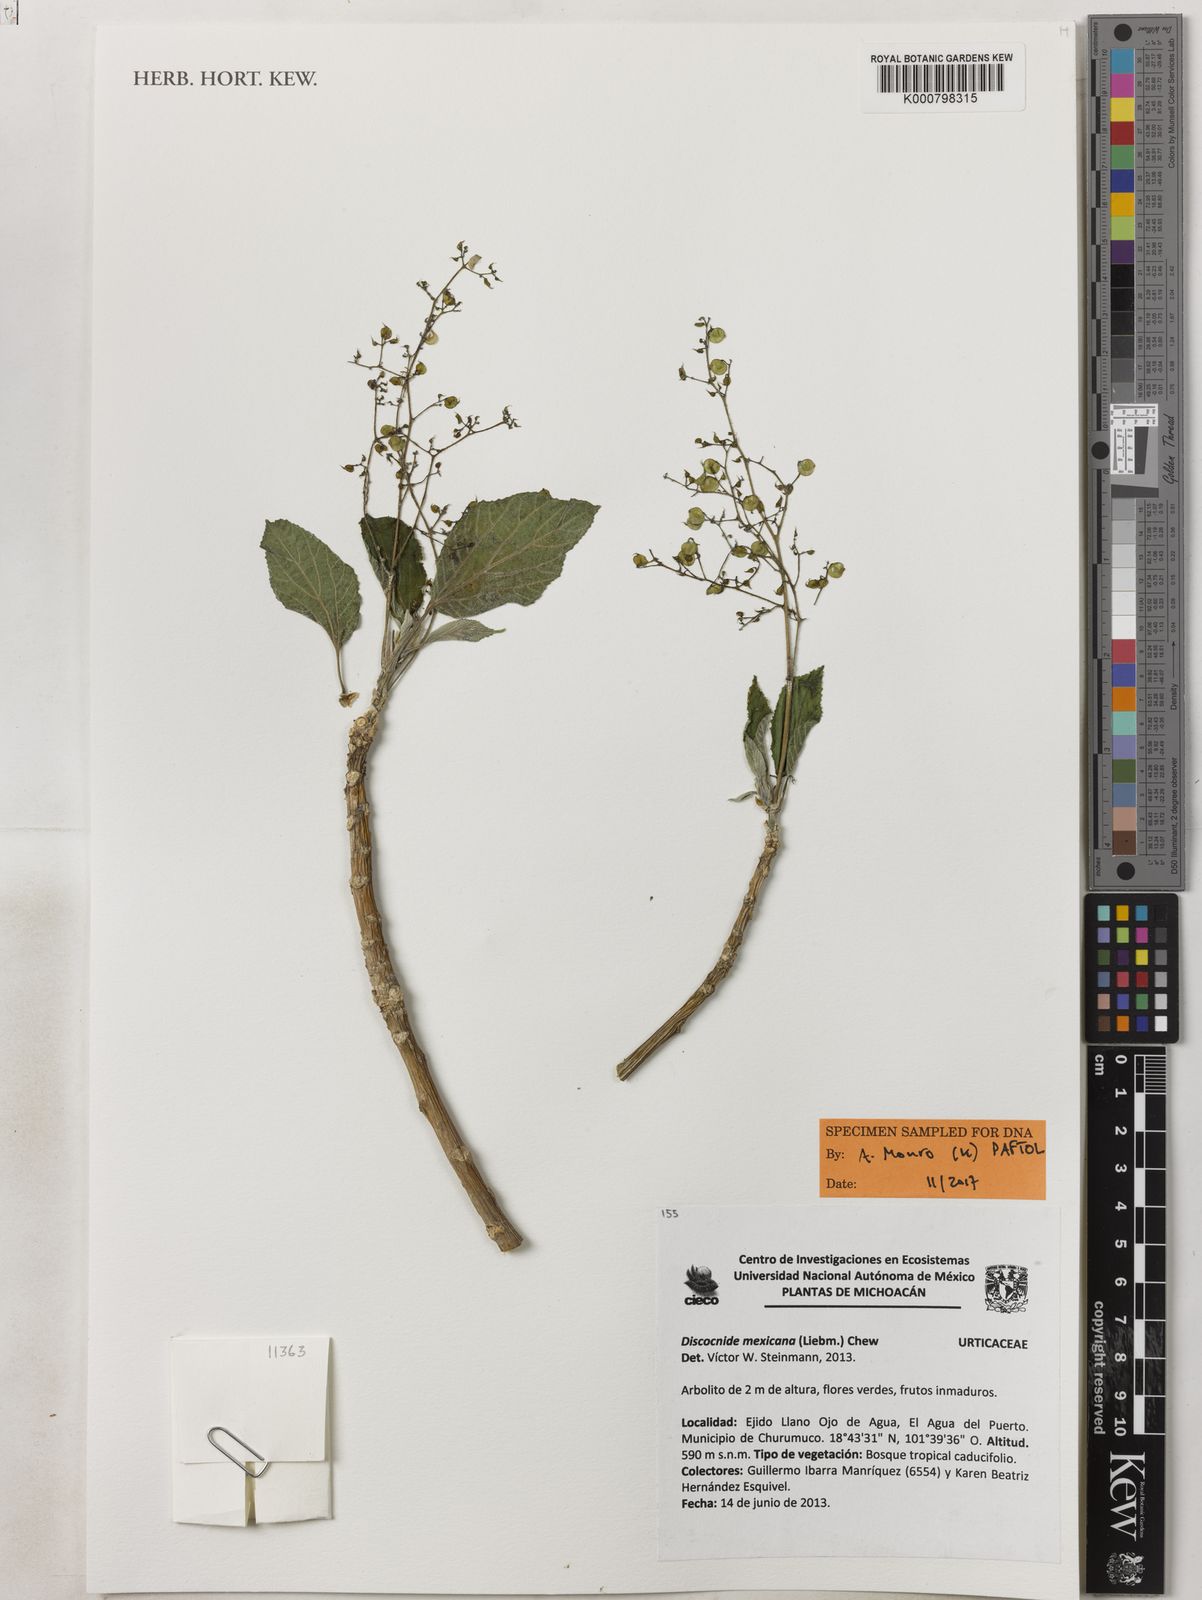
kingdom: Plantae
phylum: Tracheophyta
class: Magnoliopsida
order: Rosales
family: Urticaceae
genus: Discocnide
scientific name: Discocnide mexicana
